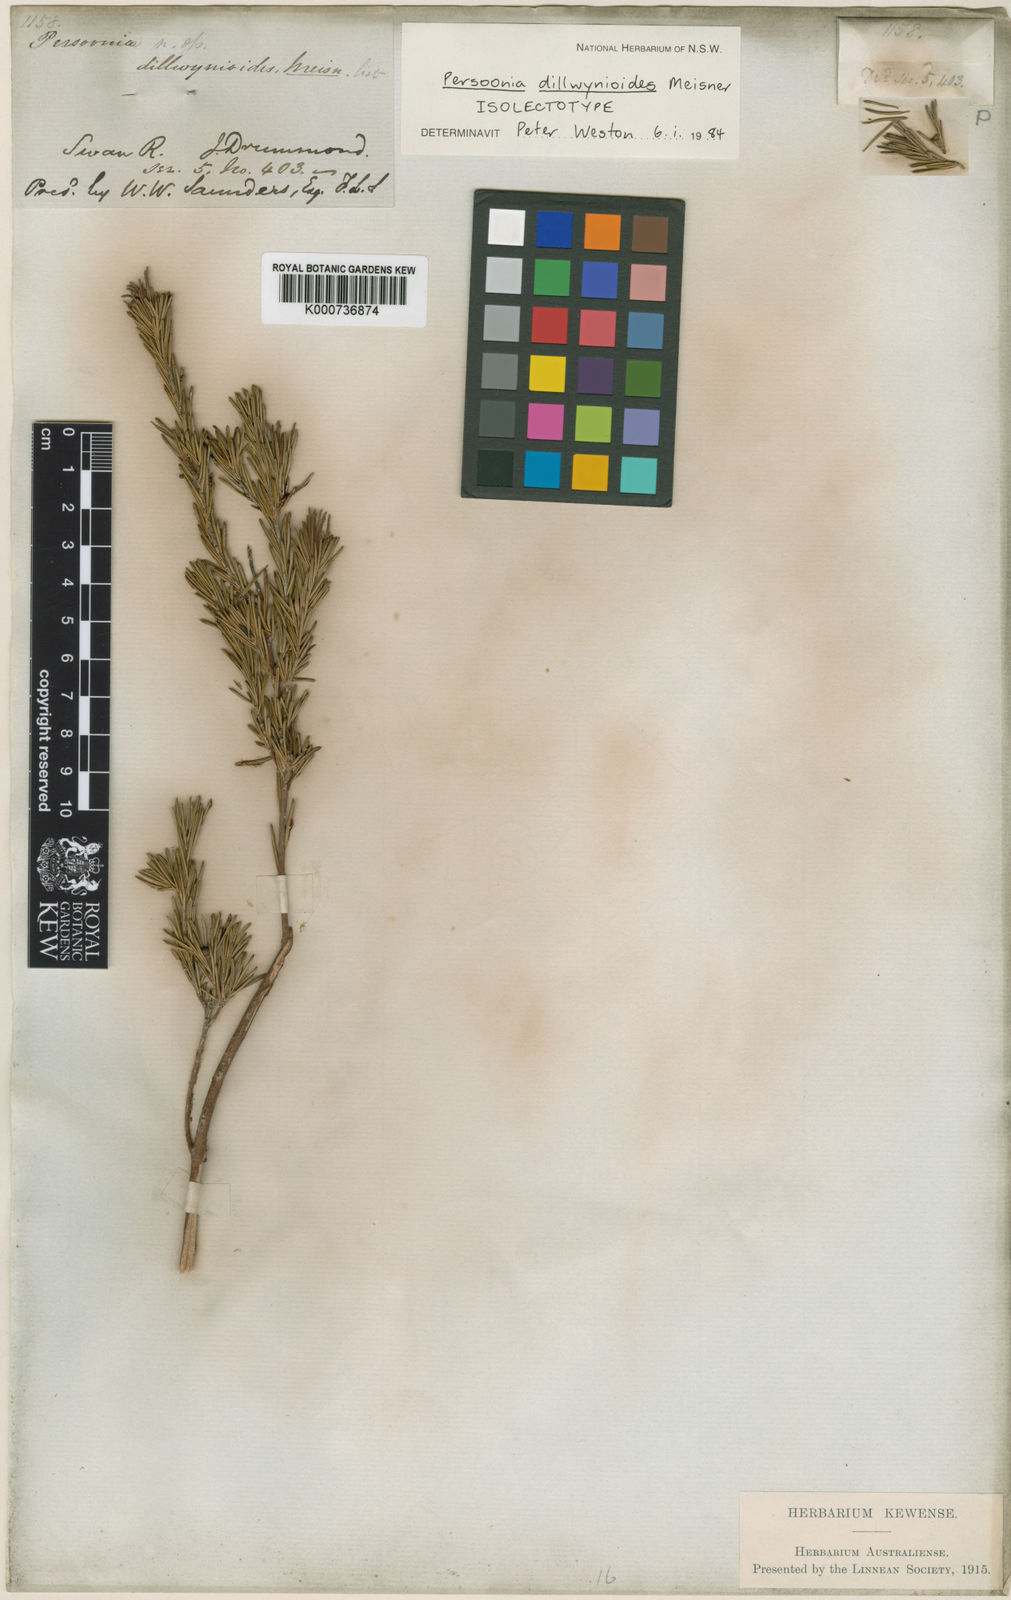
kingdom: Plantae
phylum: Tracheophyta
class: Magnoliopsida
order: Proteales
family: Proteaceae
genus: Persoonia
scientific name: Persoonia dillwynioides
